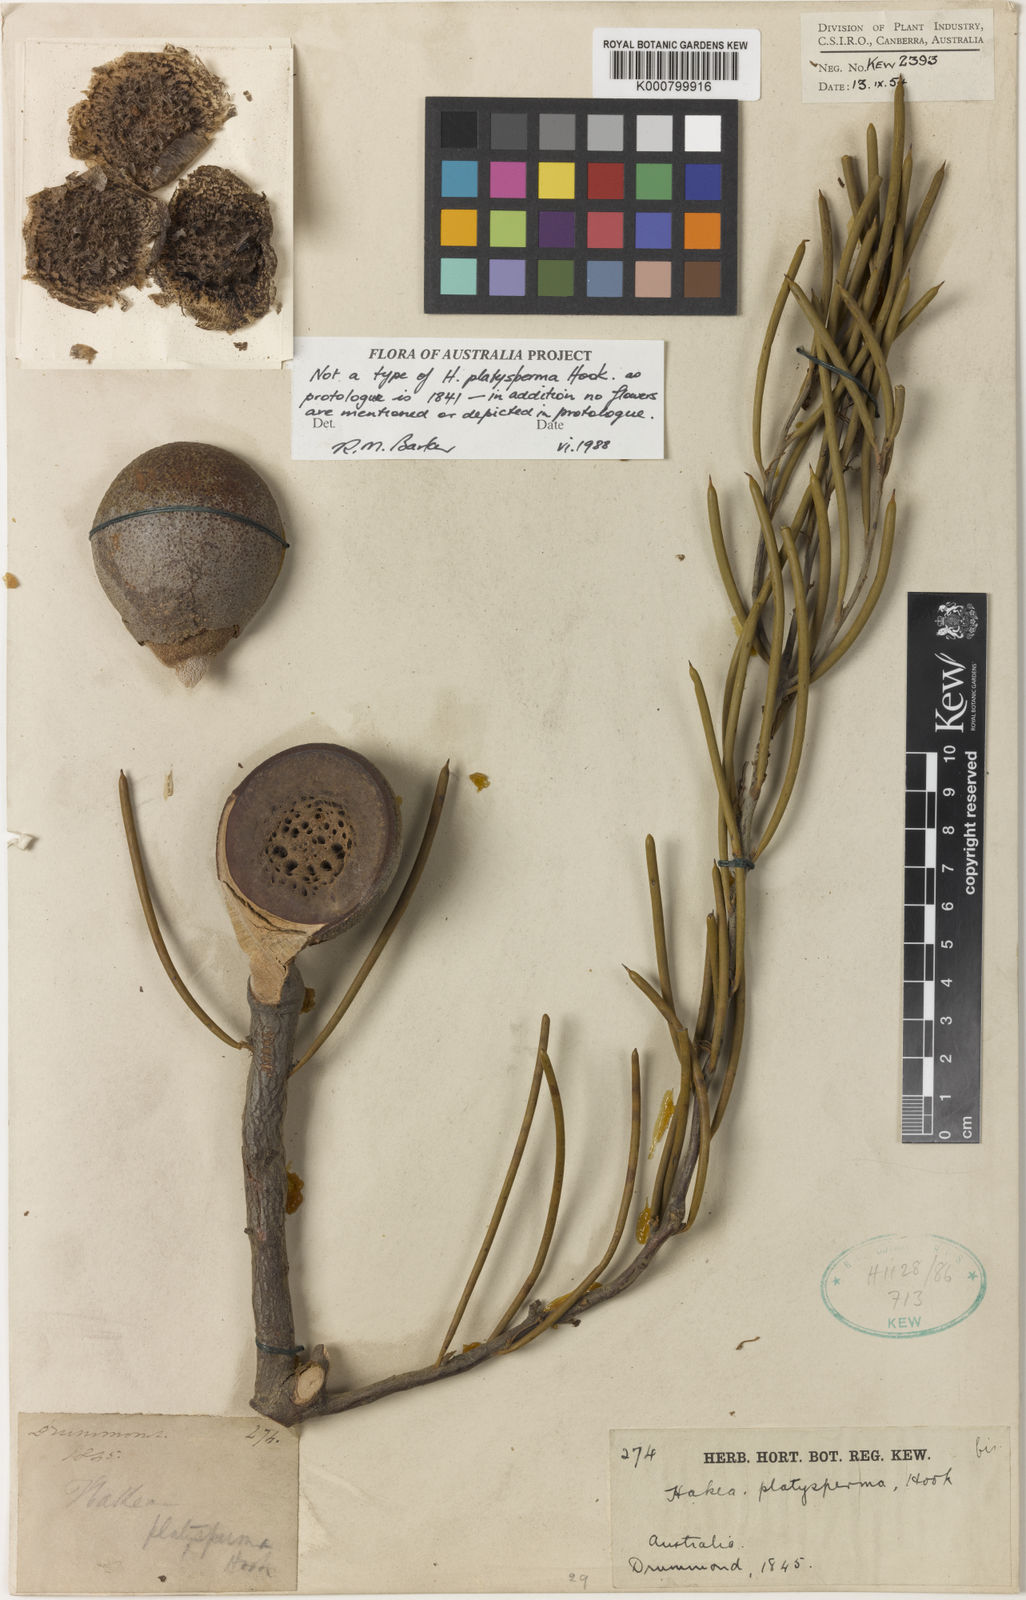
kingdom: Plantae
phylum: Tracheophyta
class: Magnoliopsida
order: Proteales
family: Proteaceae
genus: Hakea
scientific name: Hakea platysperma
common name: Cricket-ball hakea
